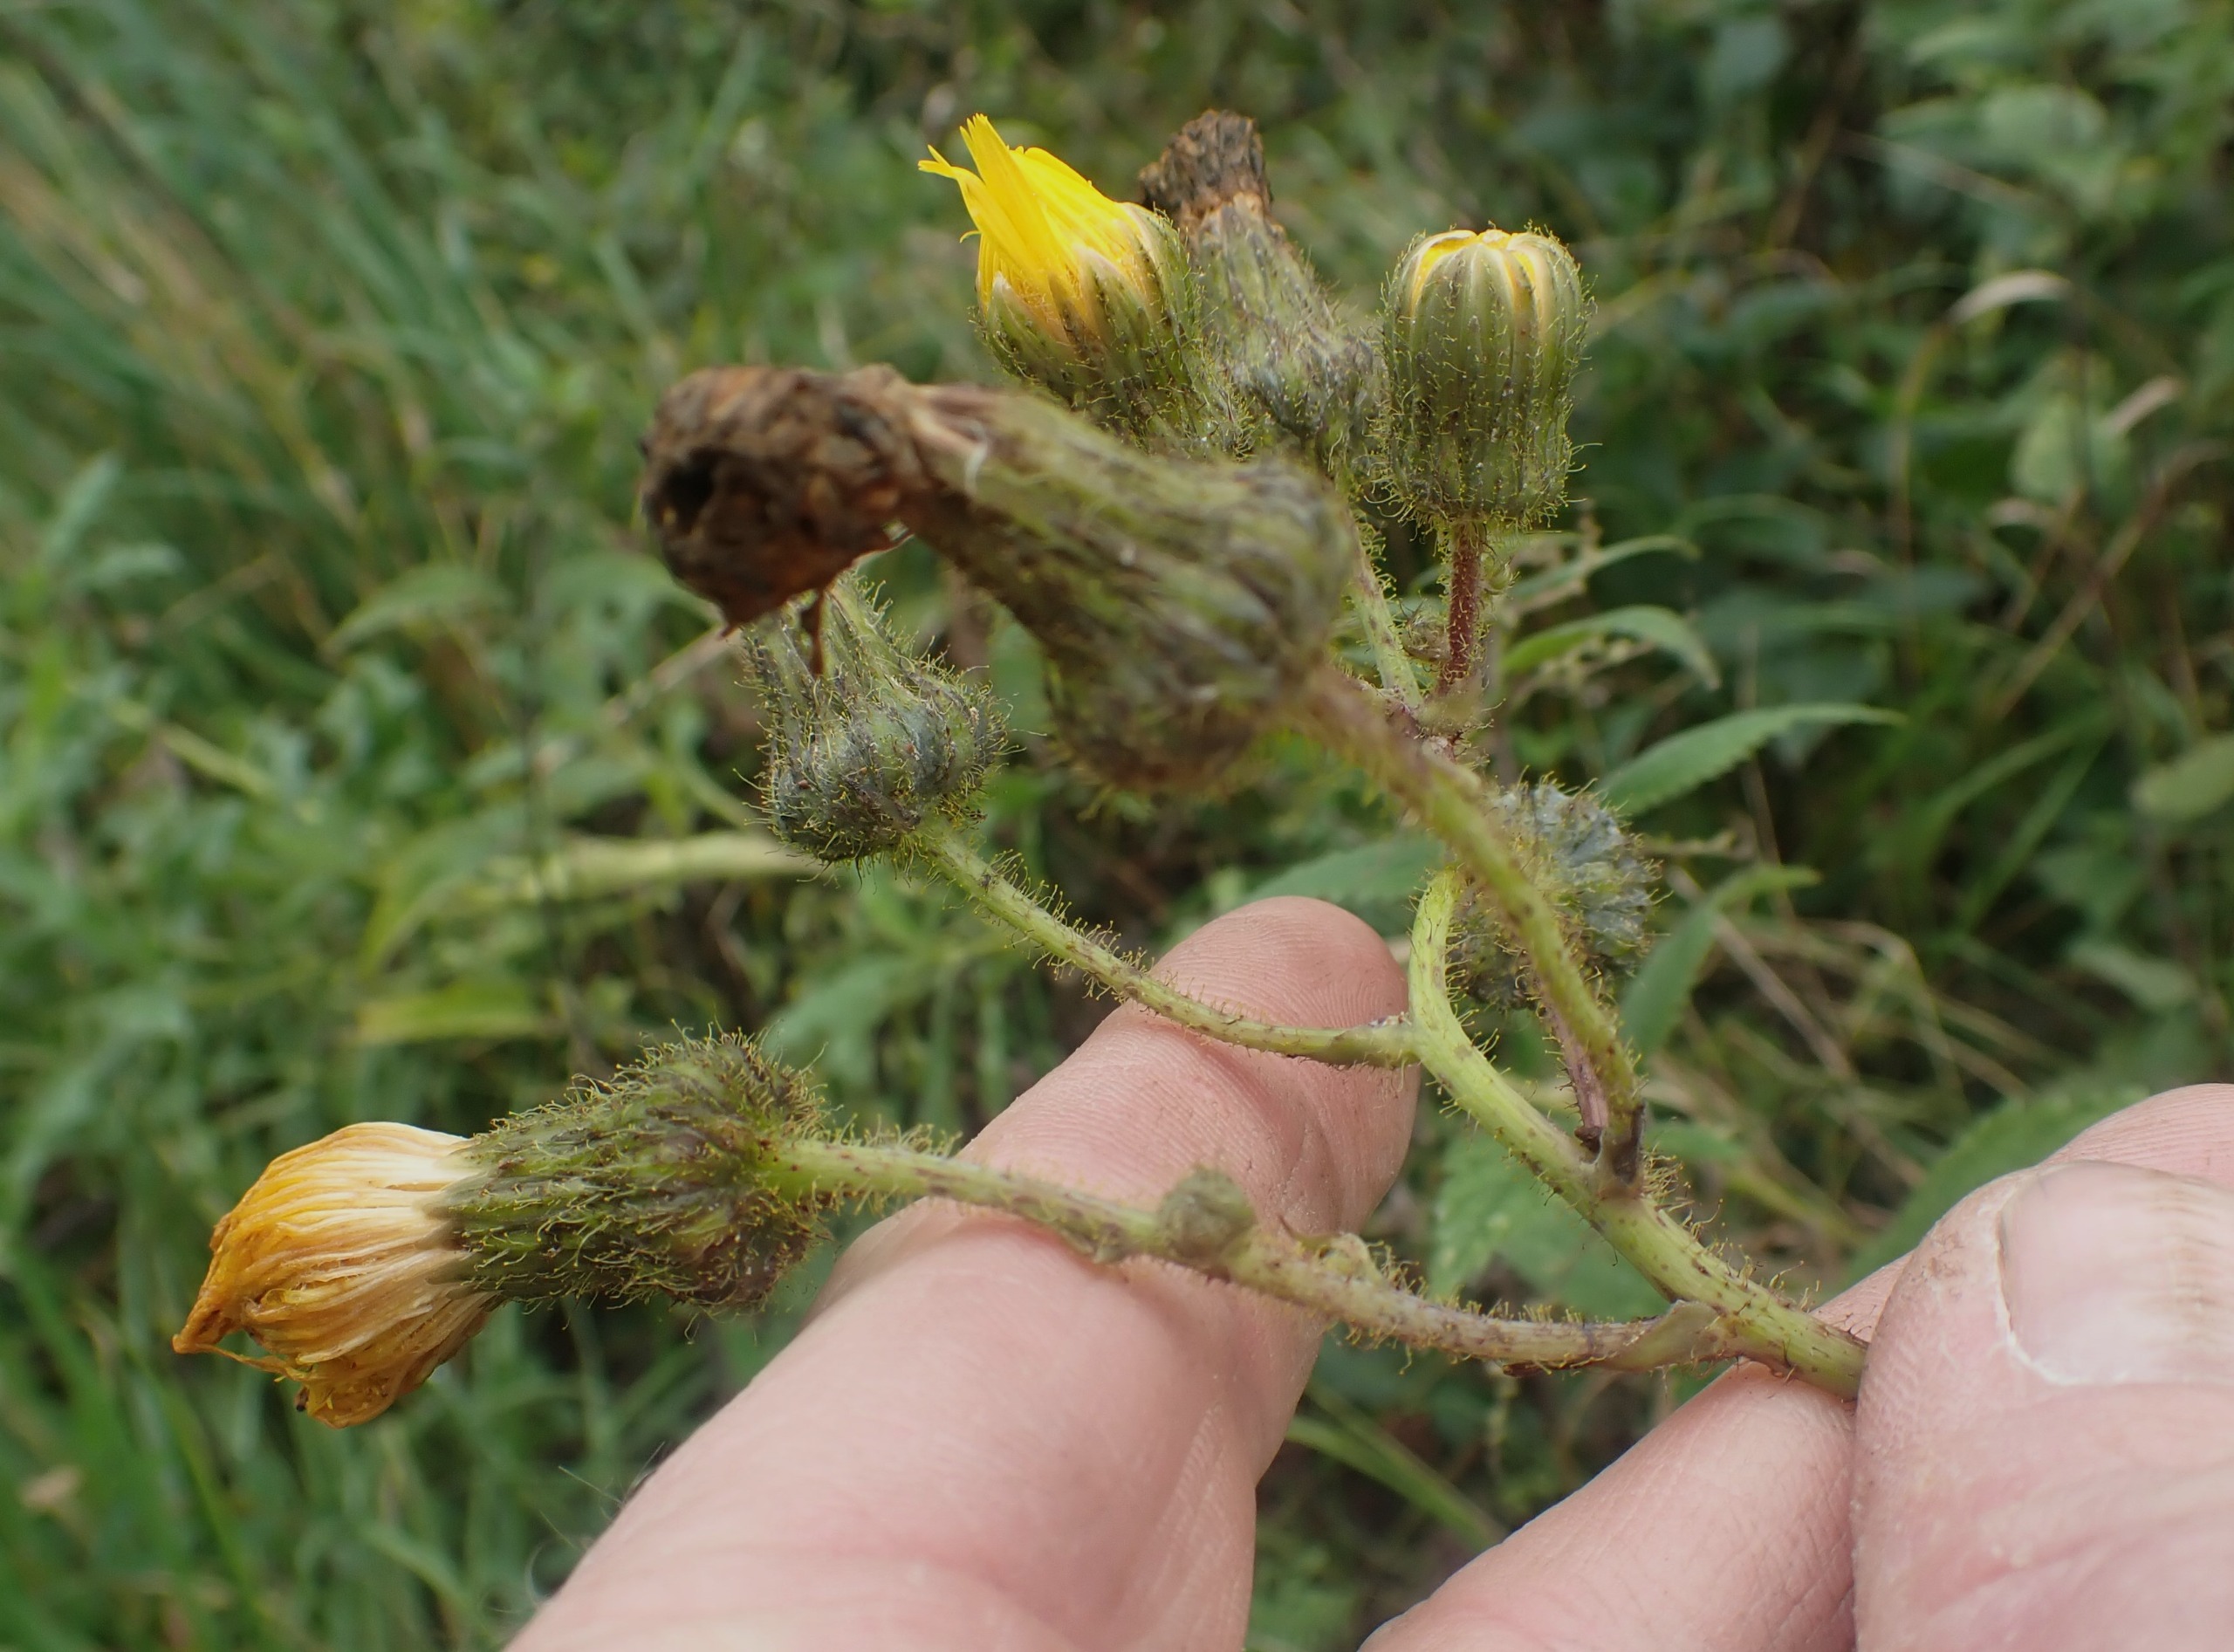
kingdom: Plantae
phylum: Tracheophyta
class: Magnoliopsida
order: Asterales
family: Asteraceae
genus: Sonchus
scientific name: Sonchus arvensis
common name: Ager-svinemælk
